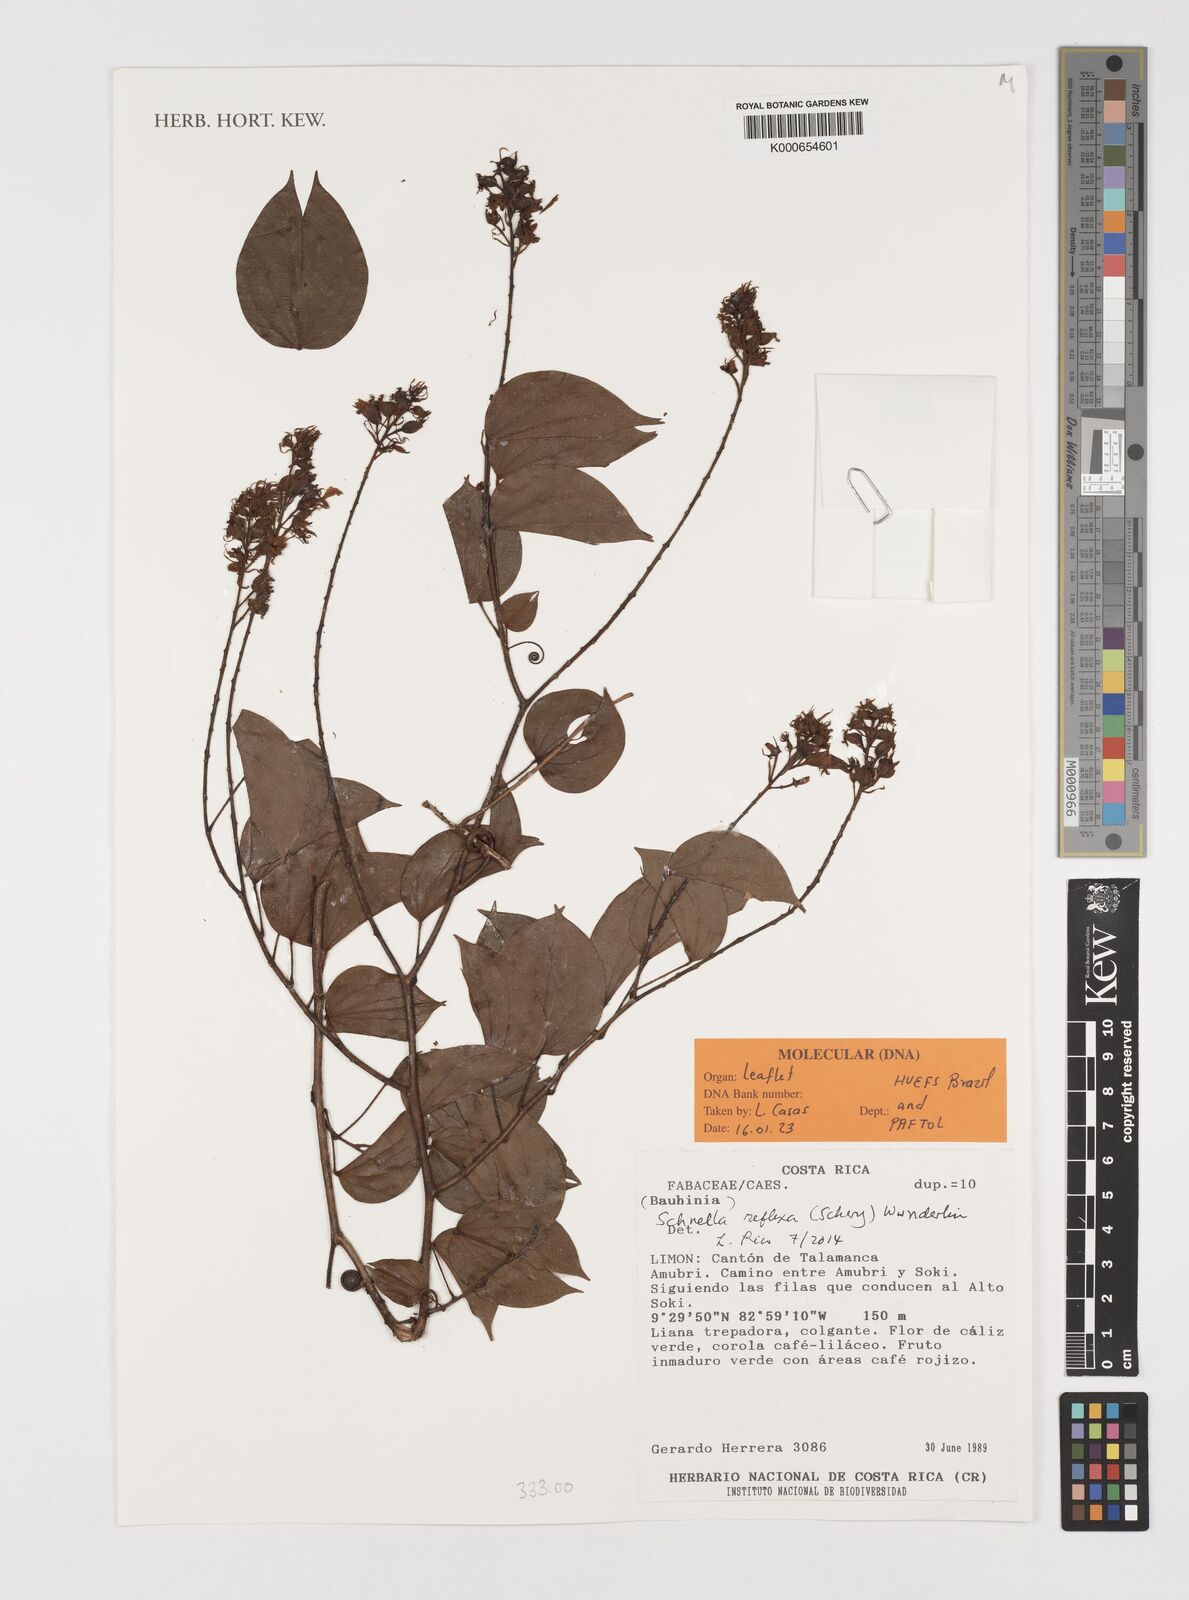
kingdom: Plantae
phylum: Tracheophyta
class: Magnoliopsida
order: Fabales
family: Fabaceae
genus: Bauhinia
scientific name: Bauhinia
